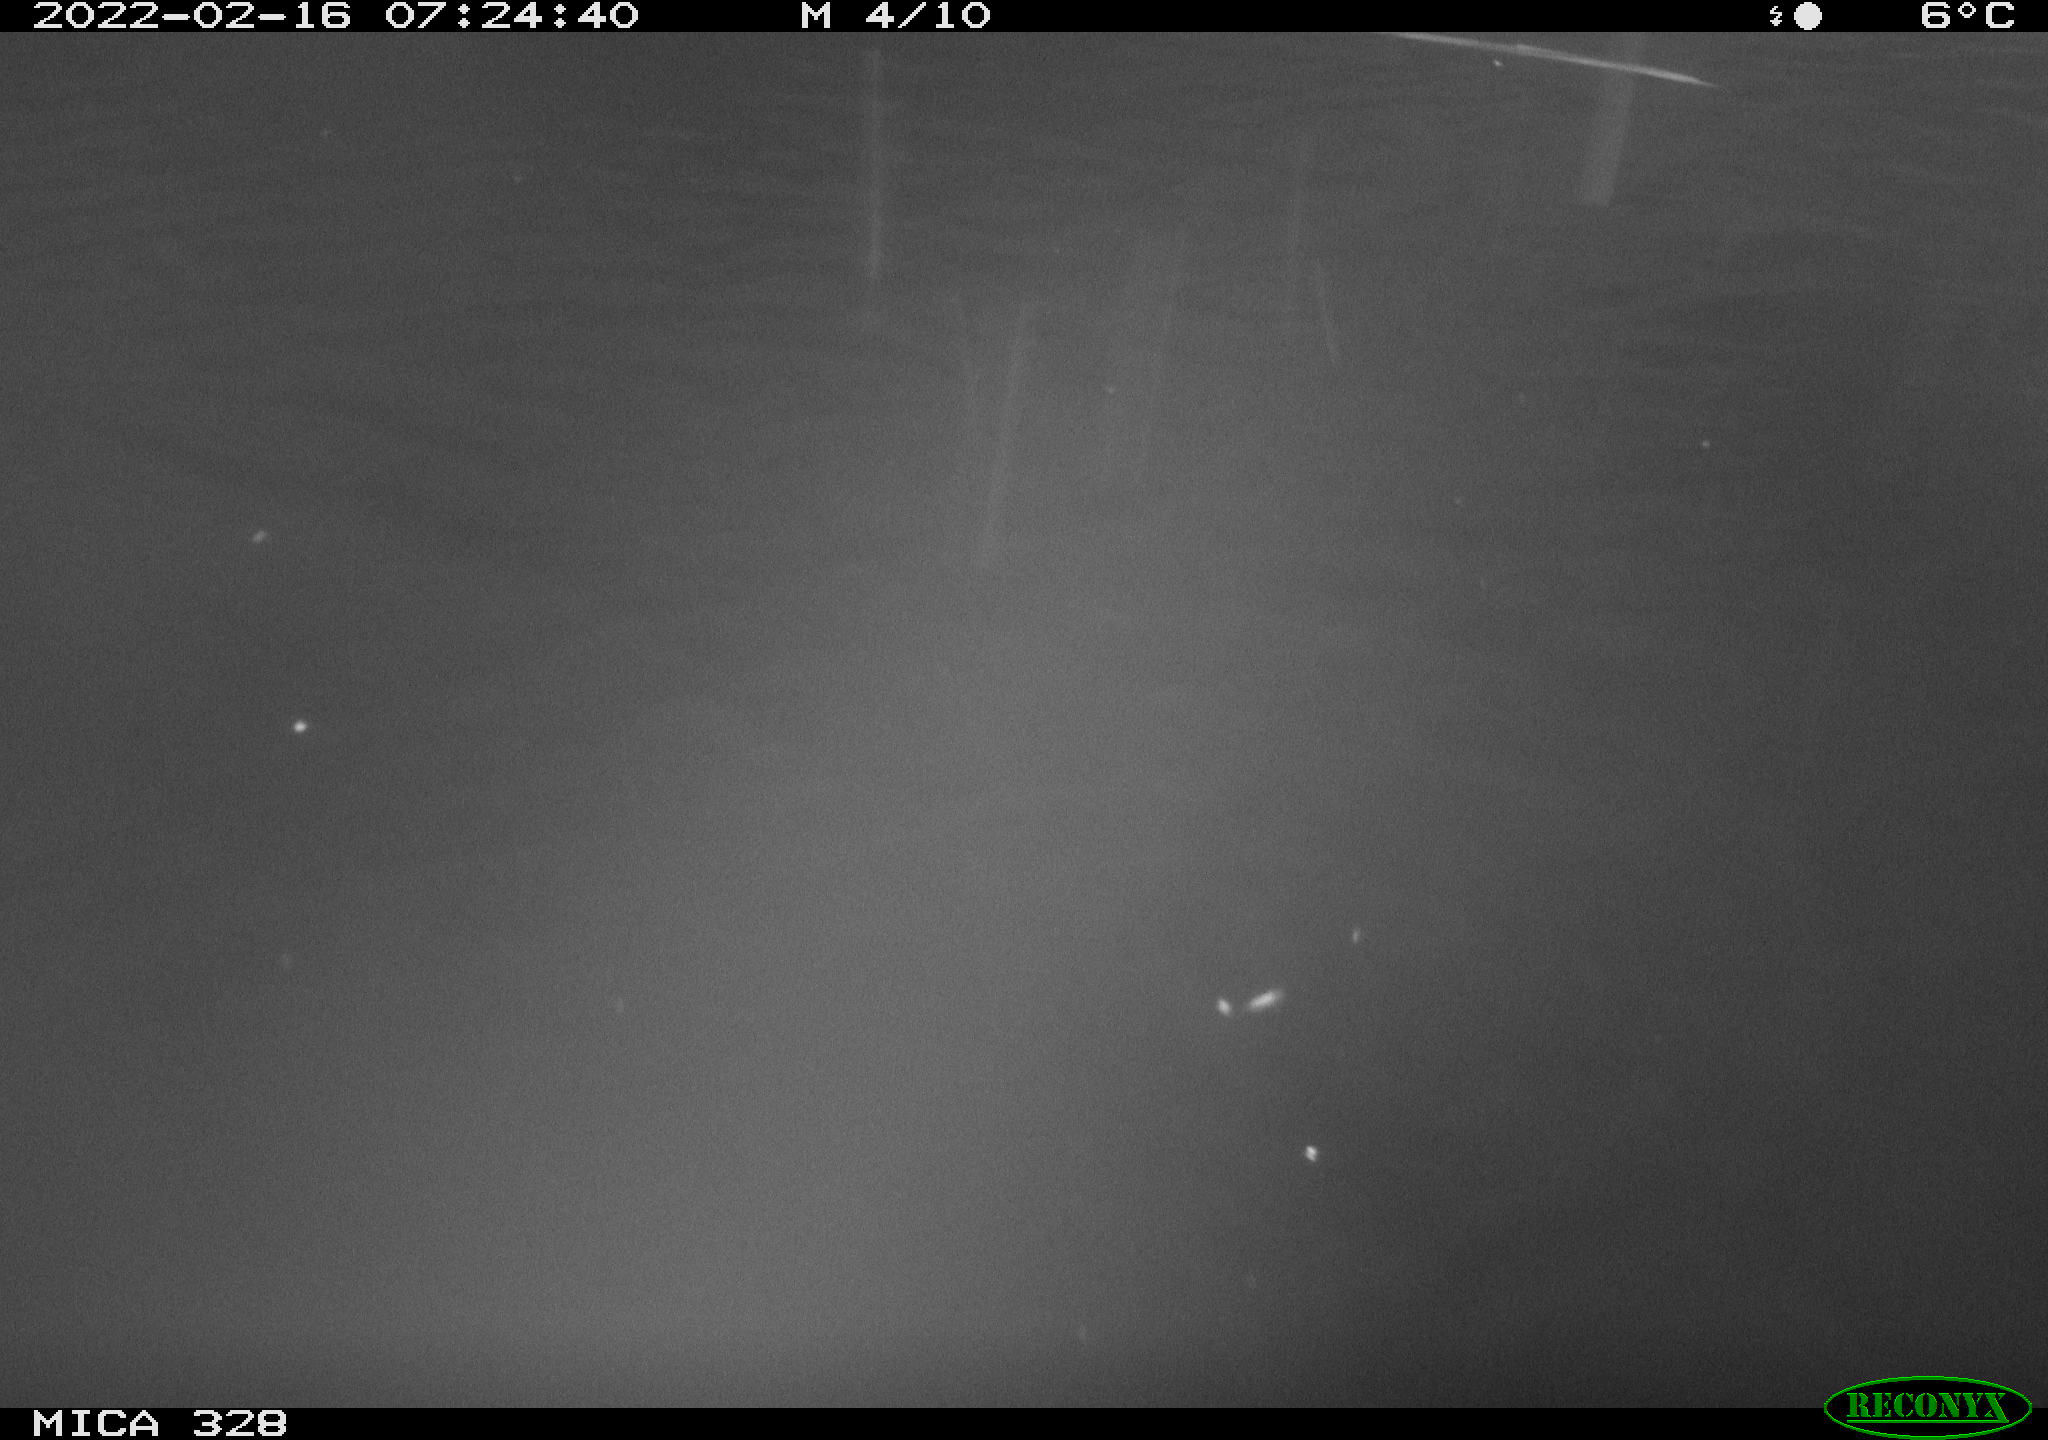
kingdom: Animalia
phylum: Chordata
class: Aves
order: Anseriformes
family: Anatidae
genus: Anas
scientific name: Anas
